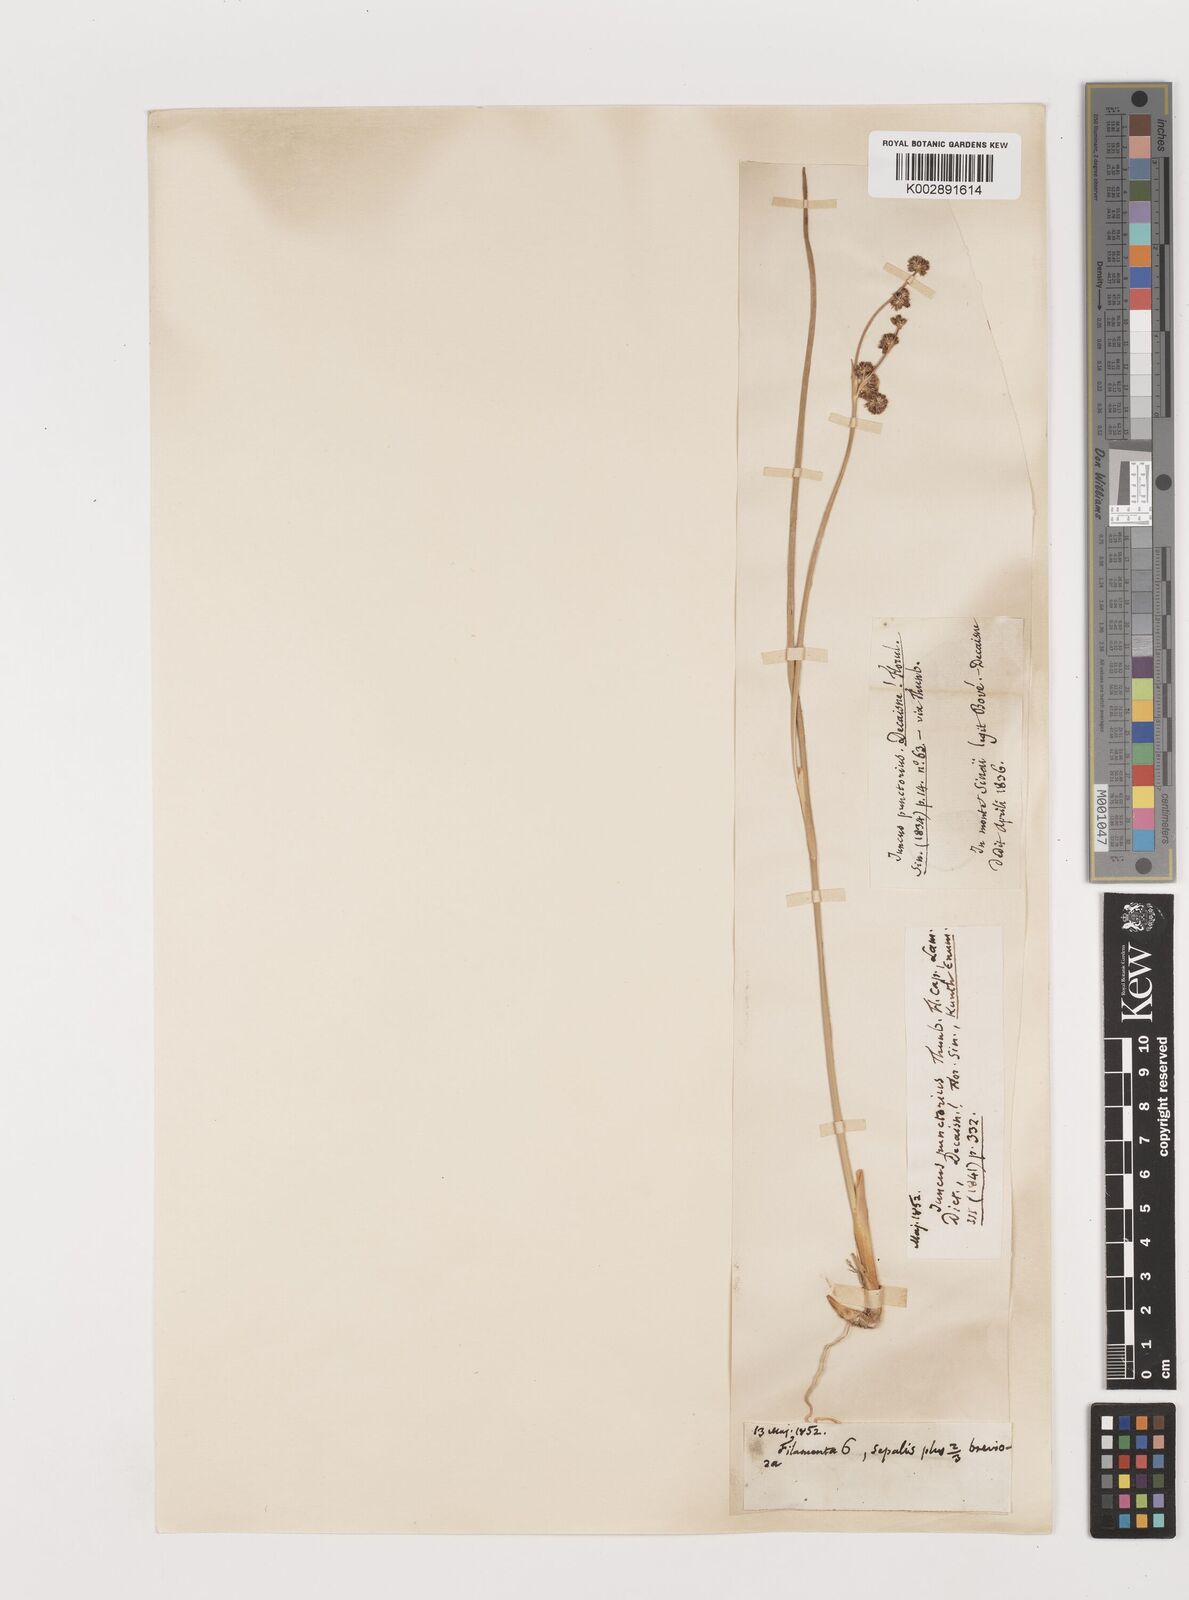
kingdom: Plantae
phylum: Tracheophyta
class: Liliopsida
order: Poales
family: Juncaceae
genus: Juncus
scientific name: Juncus punctorius
